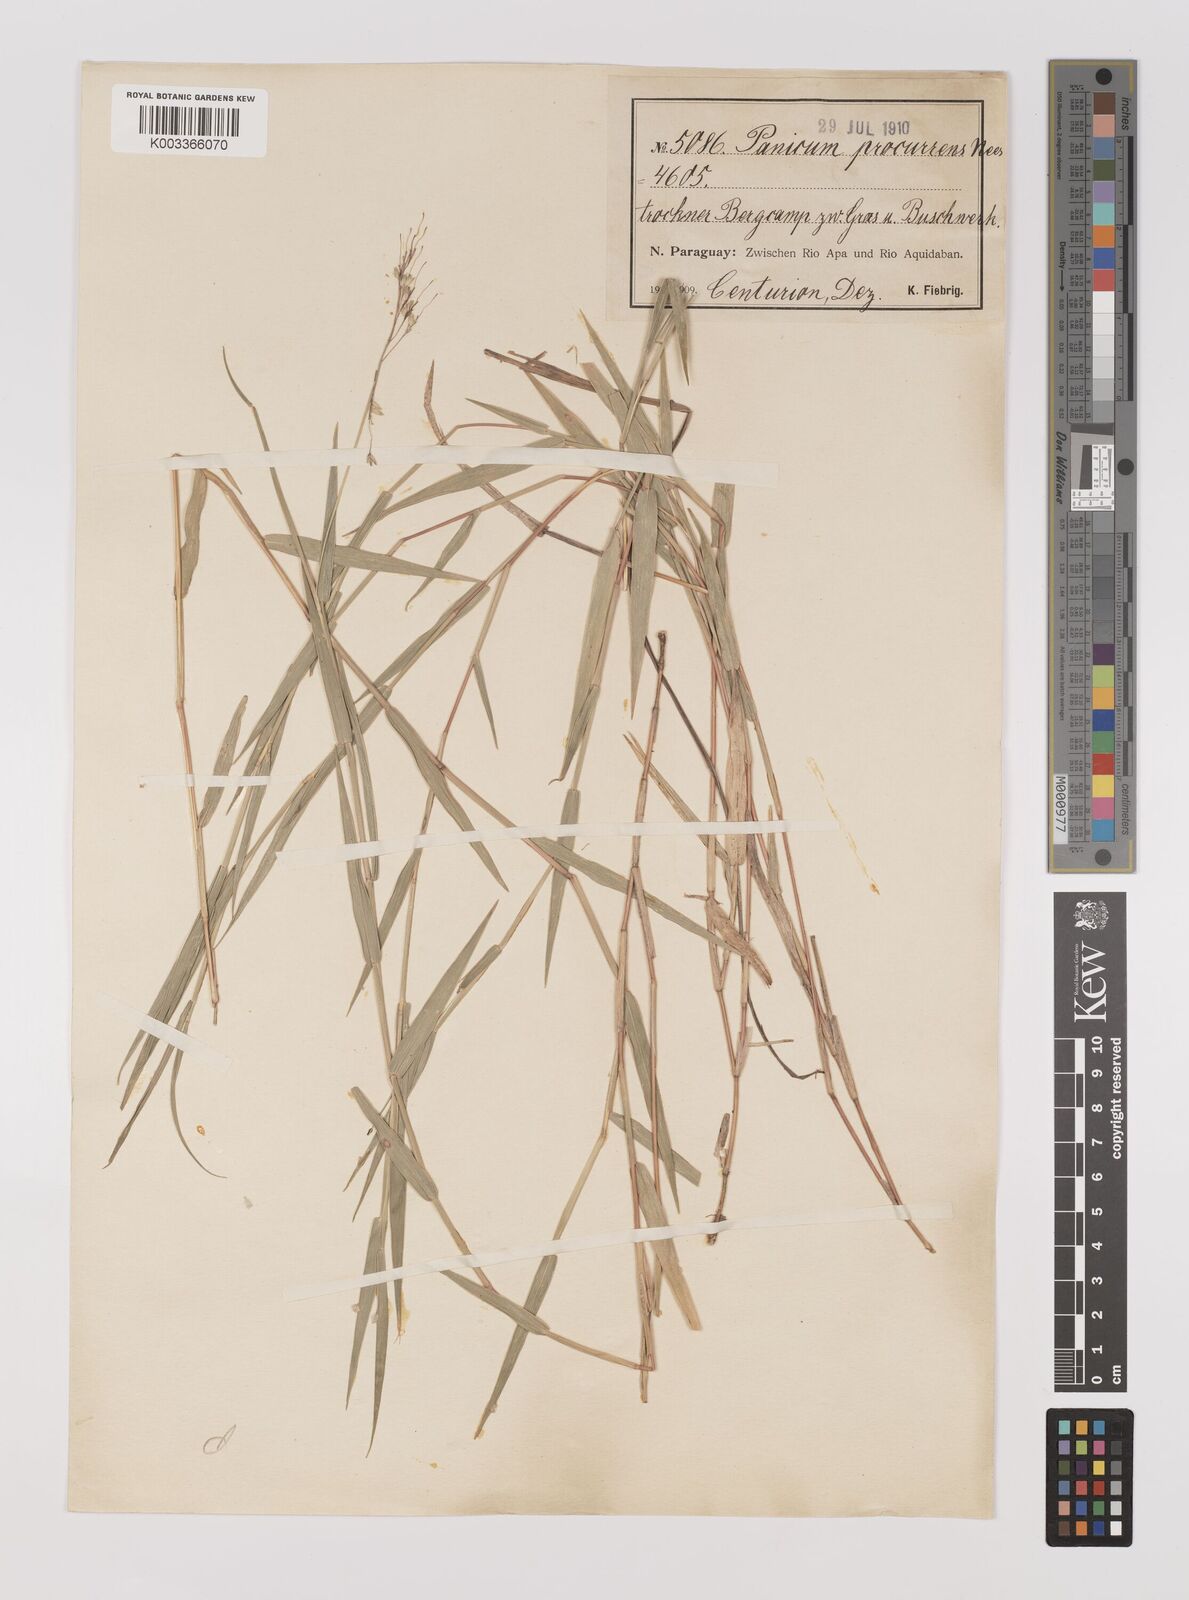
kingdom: Plantae
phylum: Tracheophyta
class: Liliopsida
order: Poales
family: Poaceae
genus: Oedochloa
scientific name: Oedochloa procurrens
